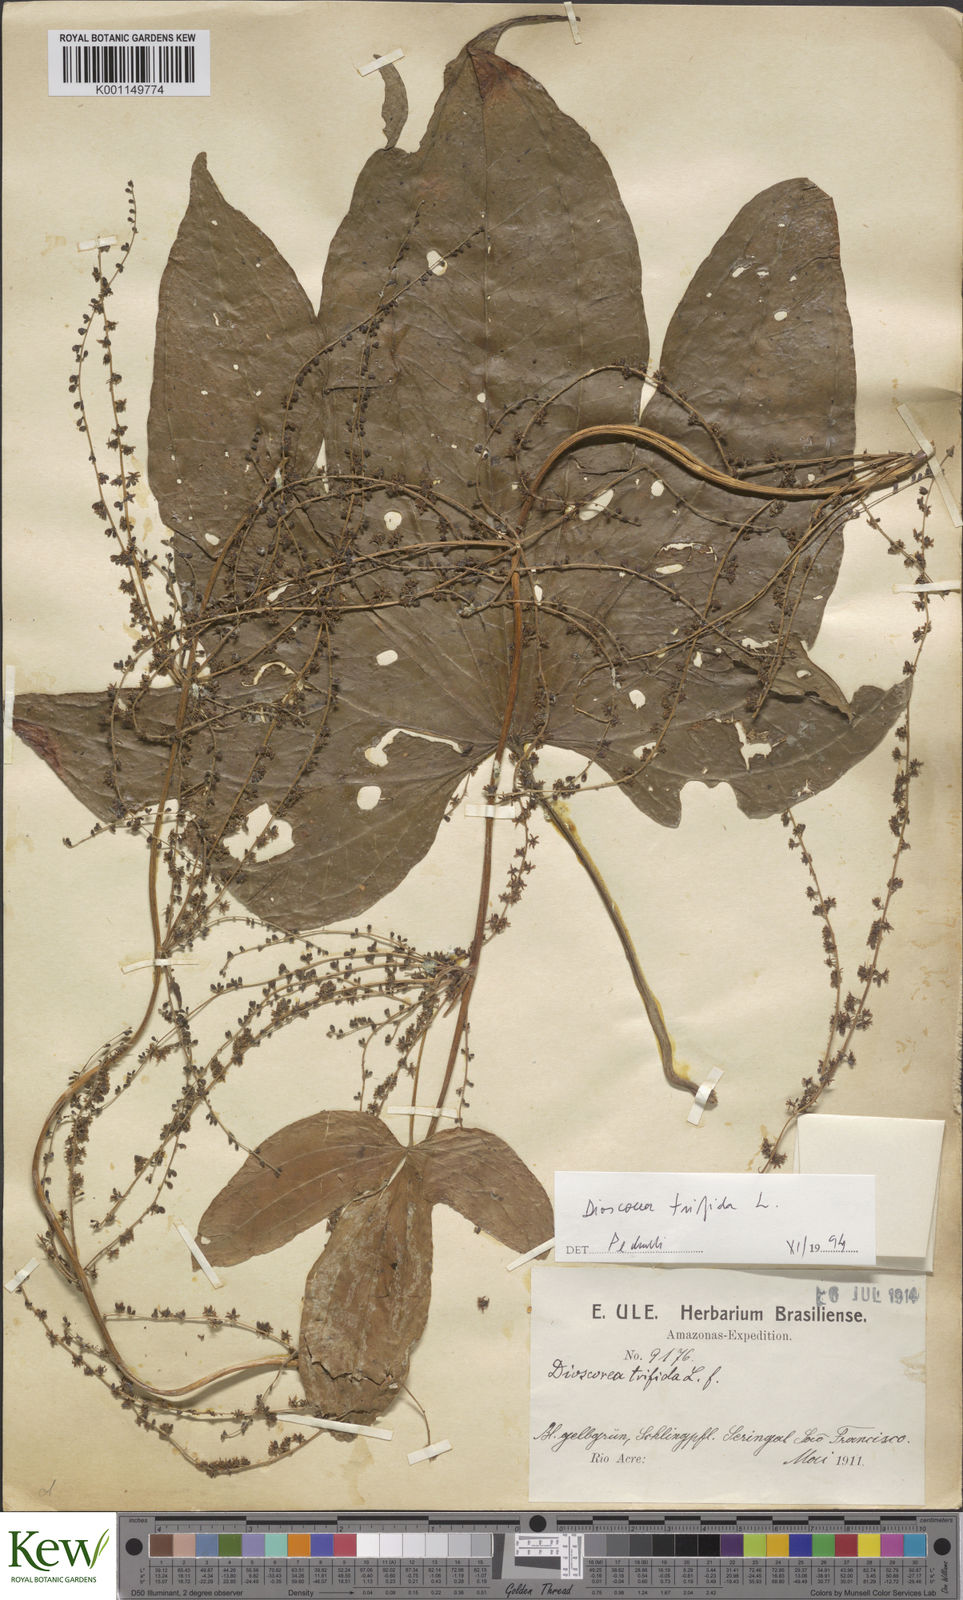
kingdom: Plantae
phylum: Tracheophyta
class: Liliopsida
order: Dioscoreales
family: Dioscoreaceae
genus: Dioscorea
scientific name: Dioscorea trifida
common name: Cush-cush
